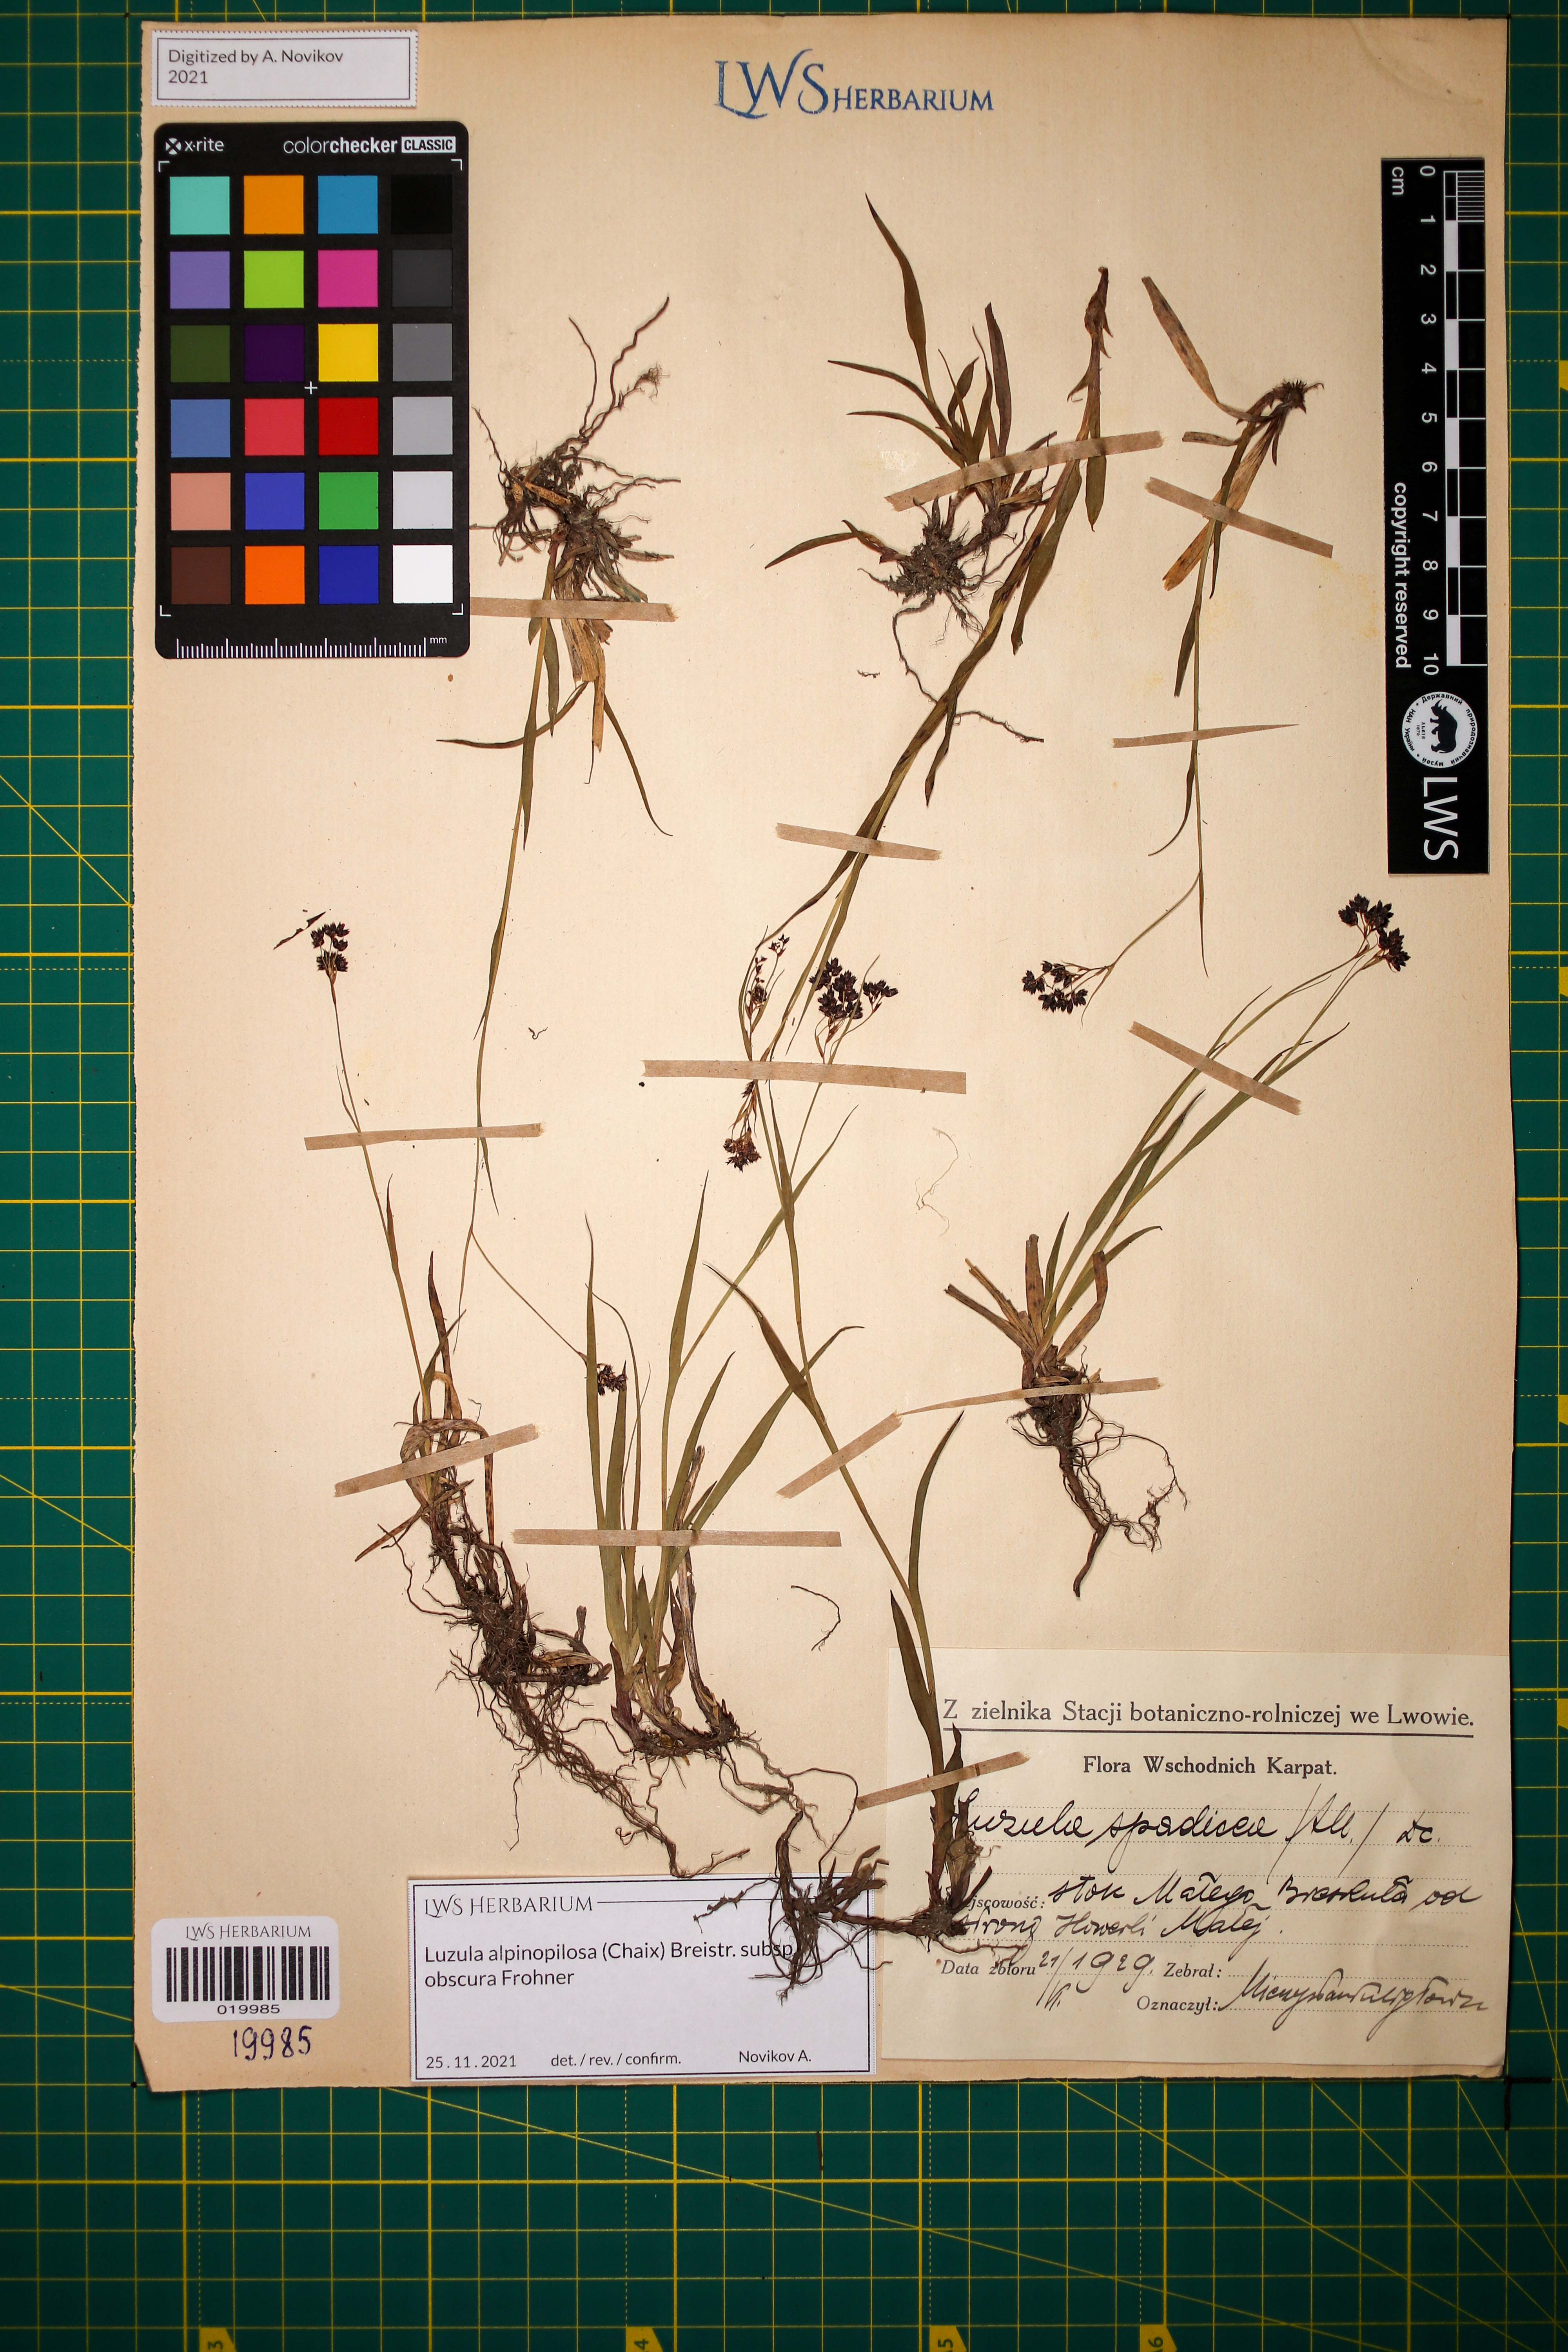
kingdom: Plantae
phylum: Tracheophyta
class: Liliopsida
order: Poales
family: Juncaceae
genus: Luzula
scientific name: Luzula alpinopilosa
